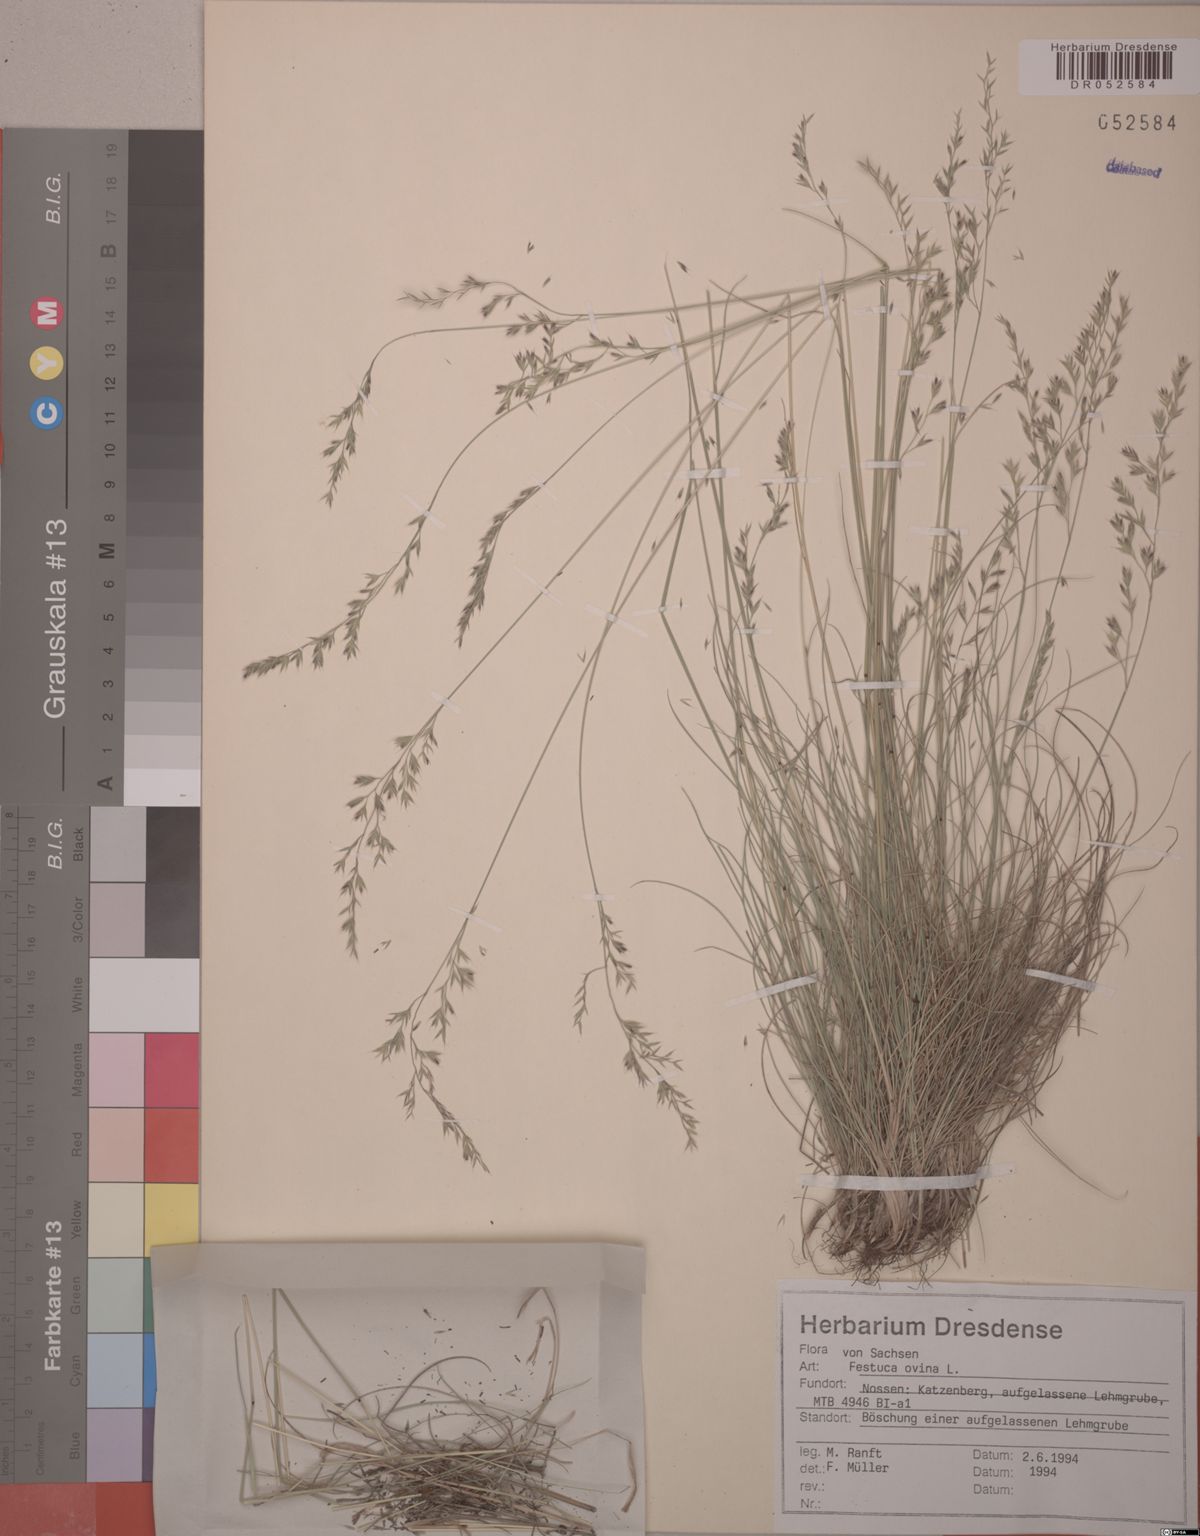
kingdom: Plantae
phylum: Tracheophyta
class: Liliopsida
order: Poales
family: Poaceae
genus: Festuca
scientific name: Festuca ovina
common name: Sheep fescue
